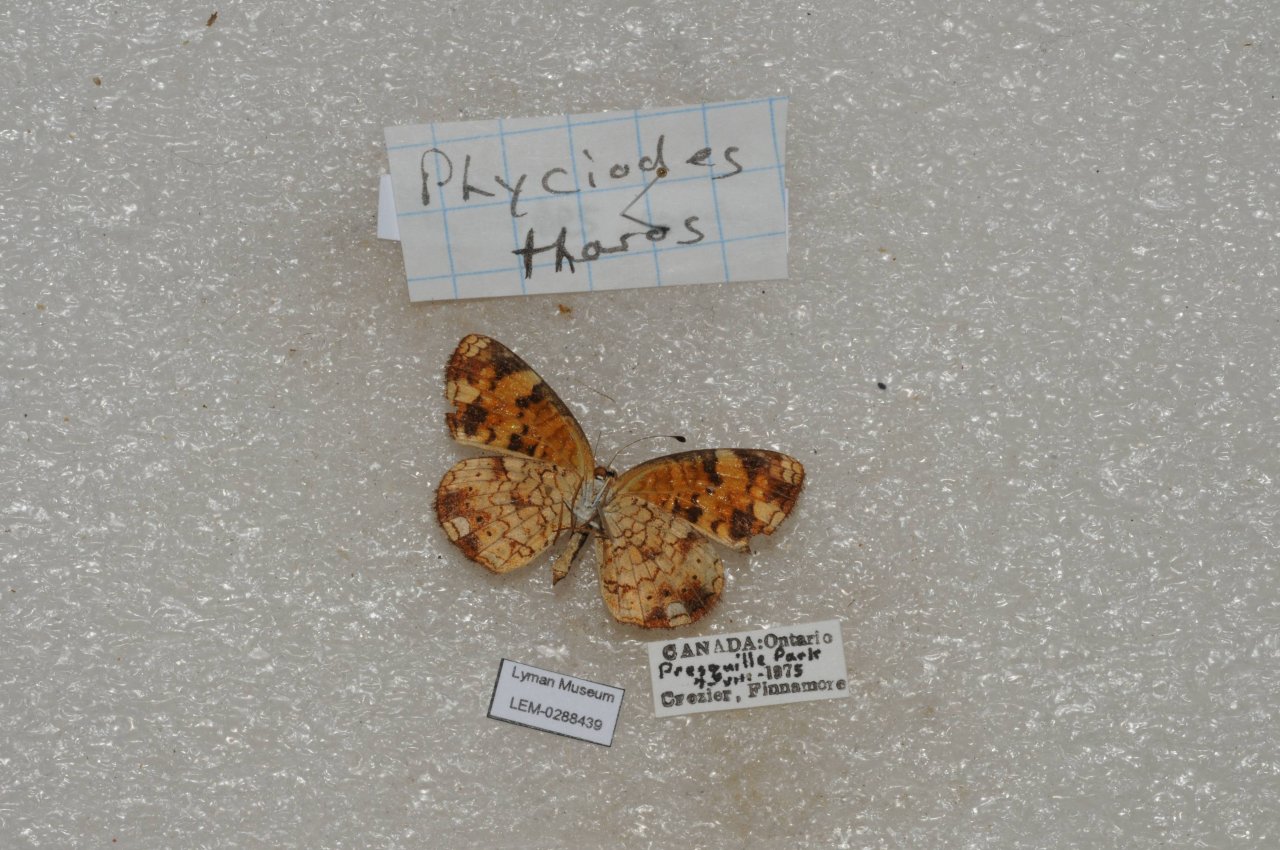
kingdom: Animalia
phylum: Arthropoda
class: Insecta
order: Lepidoptera
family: Nymphalidae
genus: Phyciodes
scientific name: Phyciodes tharos
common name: Pearl Crescent
